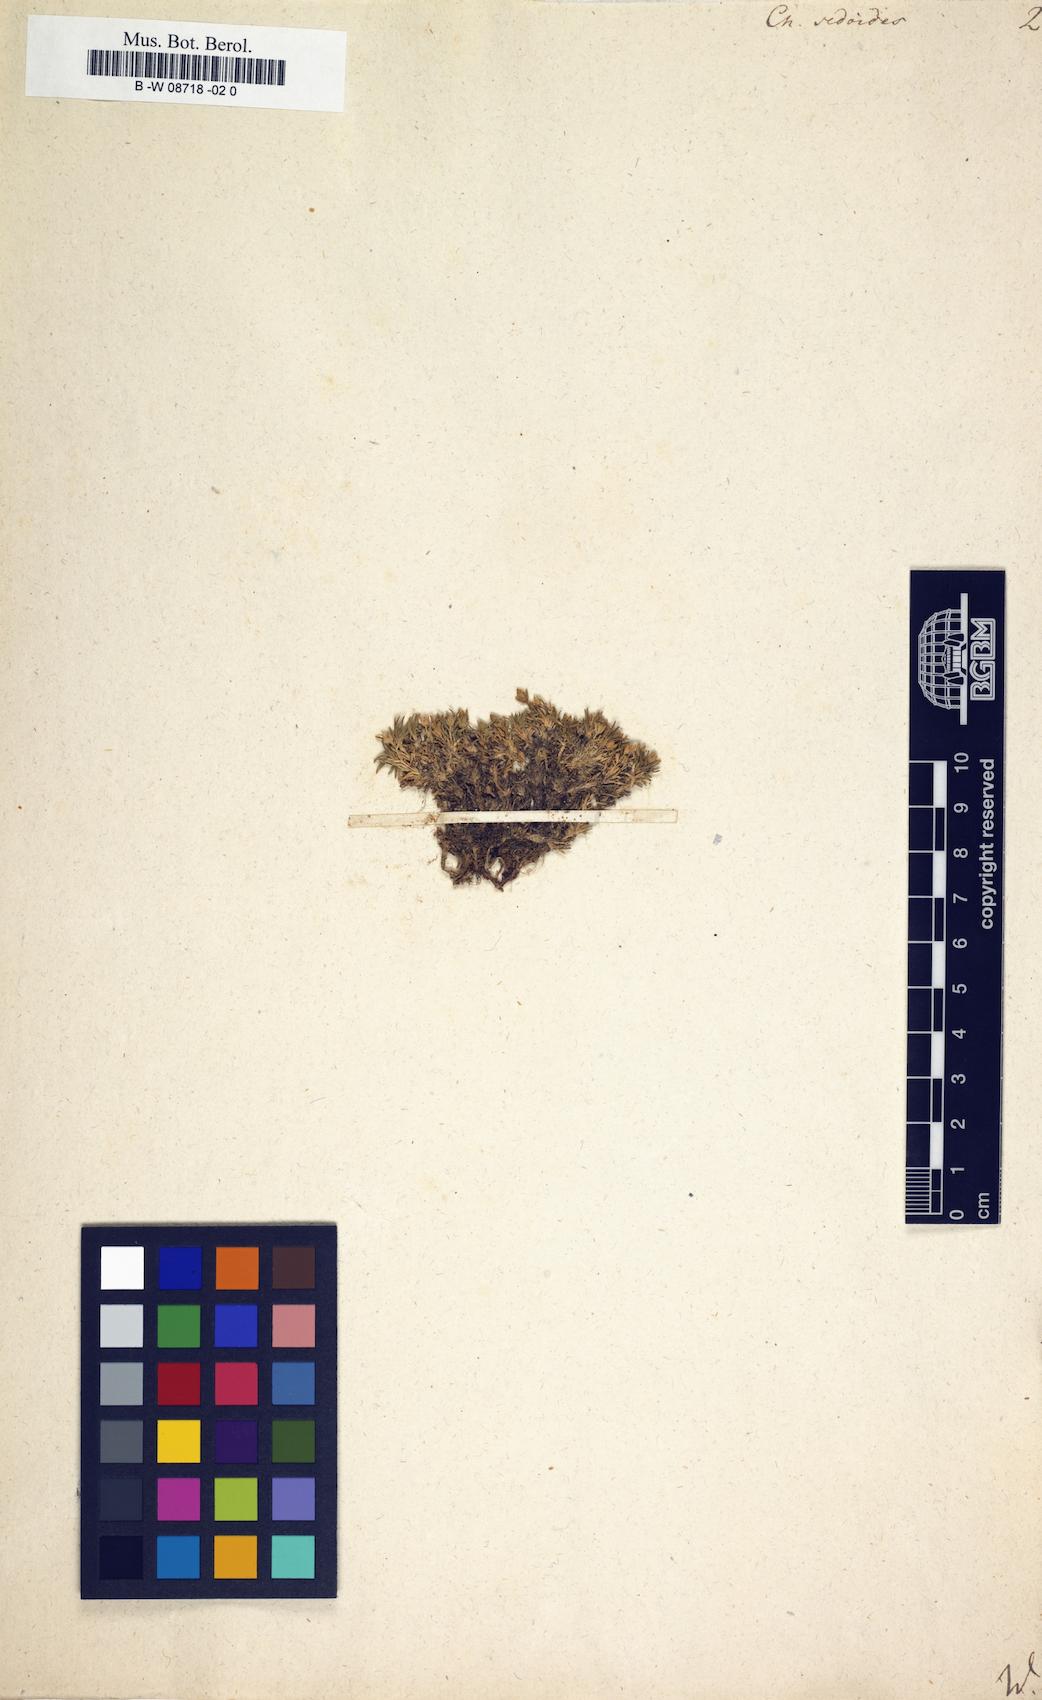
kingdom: Plantae
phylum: Tracheophyta
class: Magnoliopsida
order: Caryophyllales
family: Caryophyllaceae
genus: Cherleria
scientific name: Cherleria sedoides
